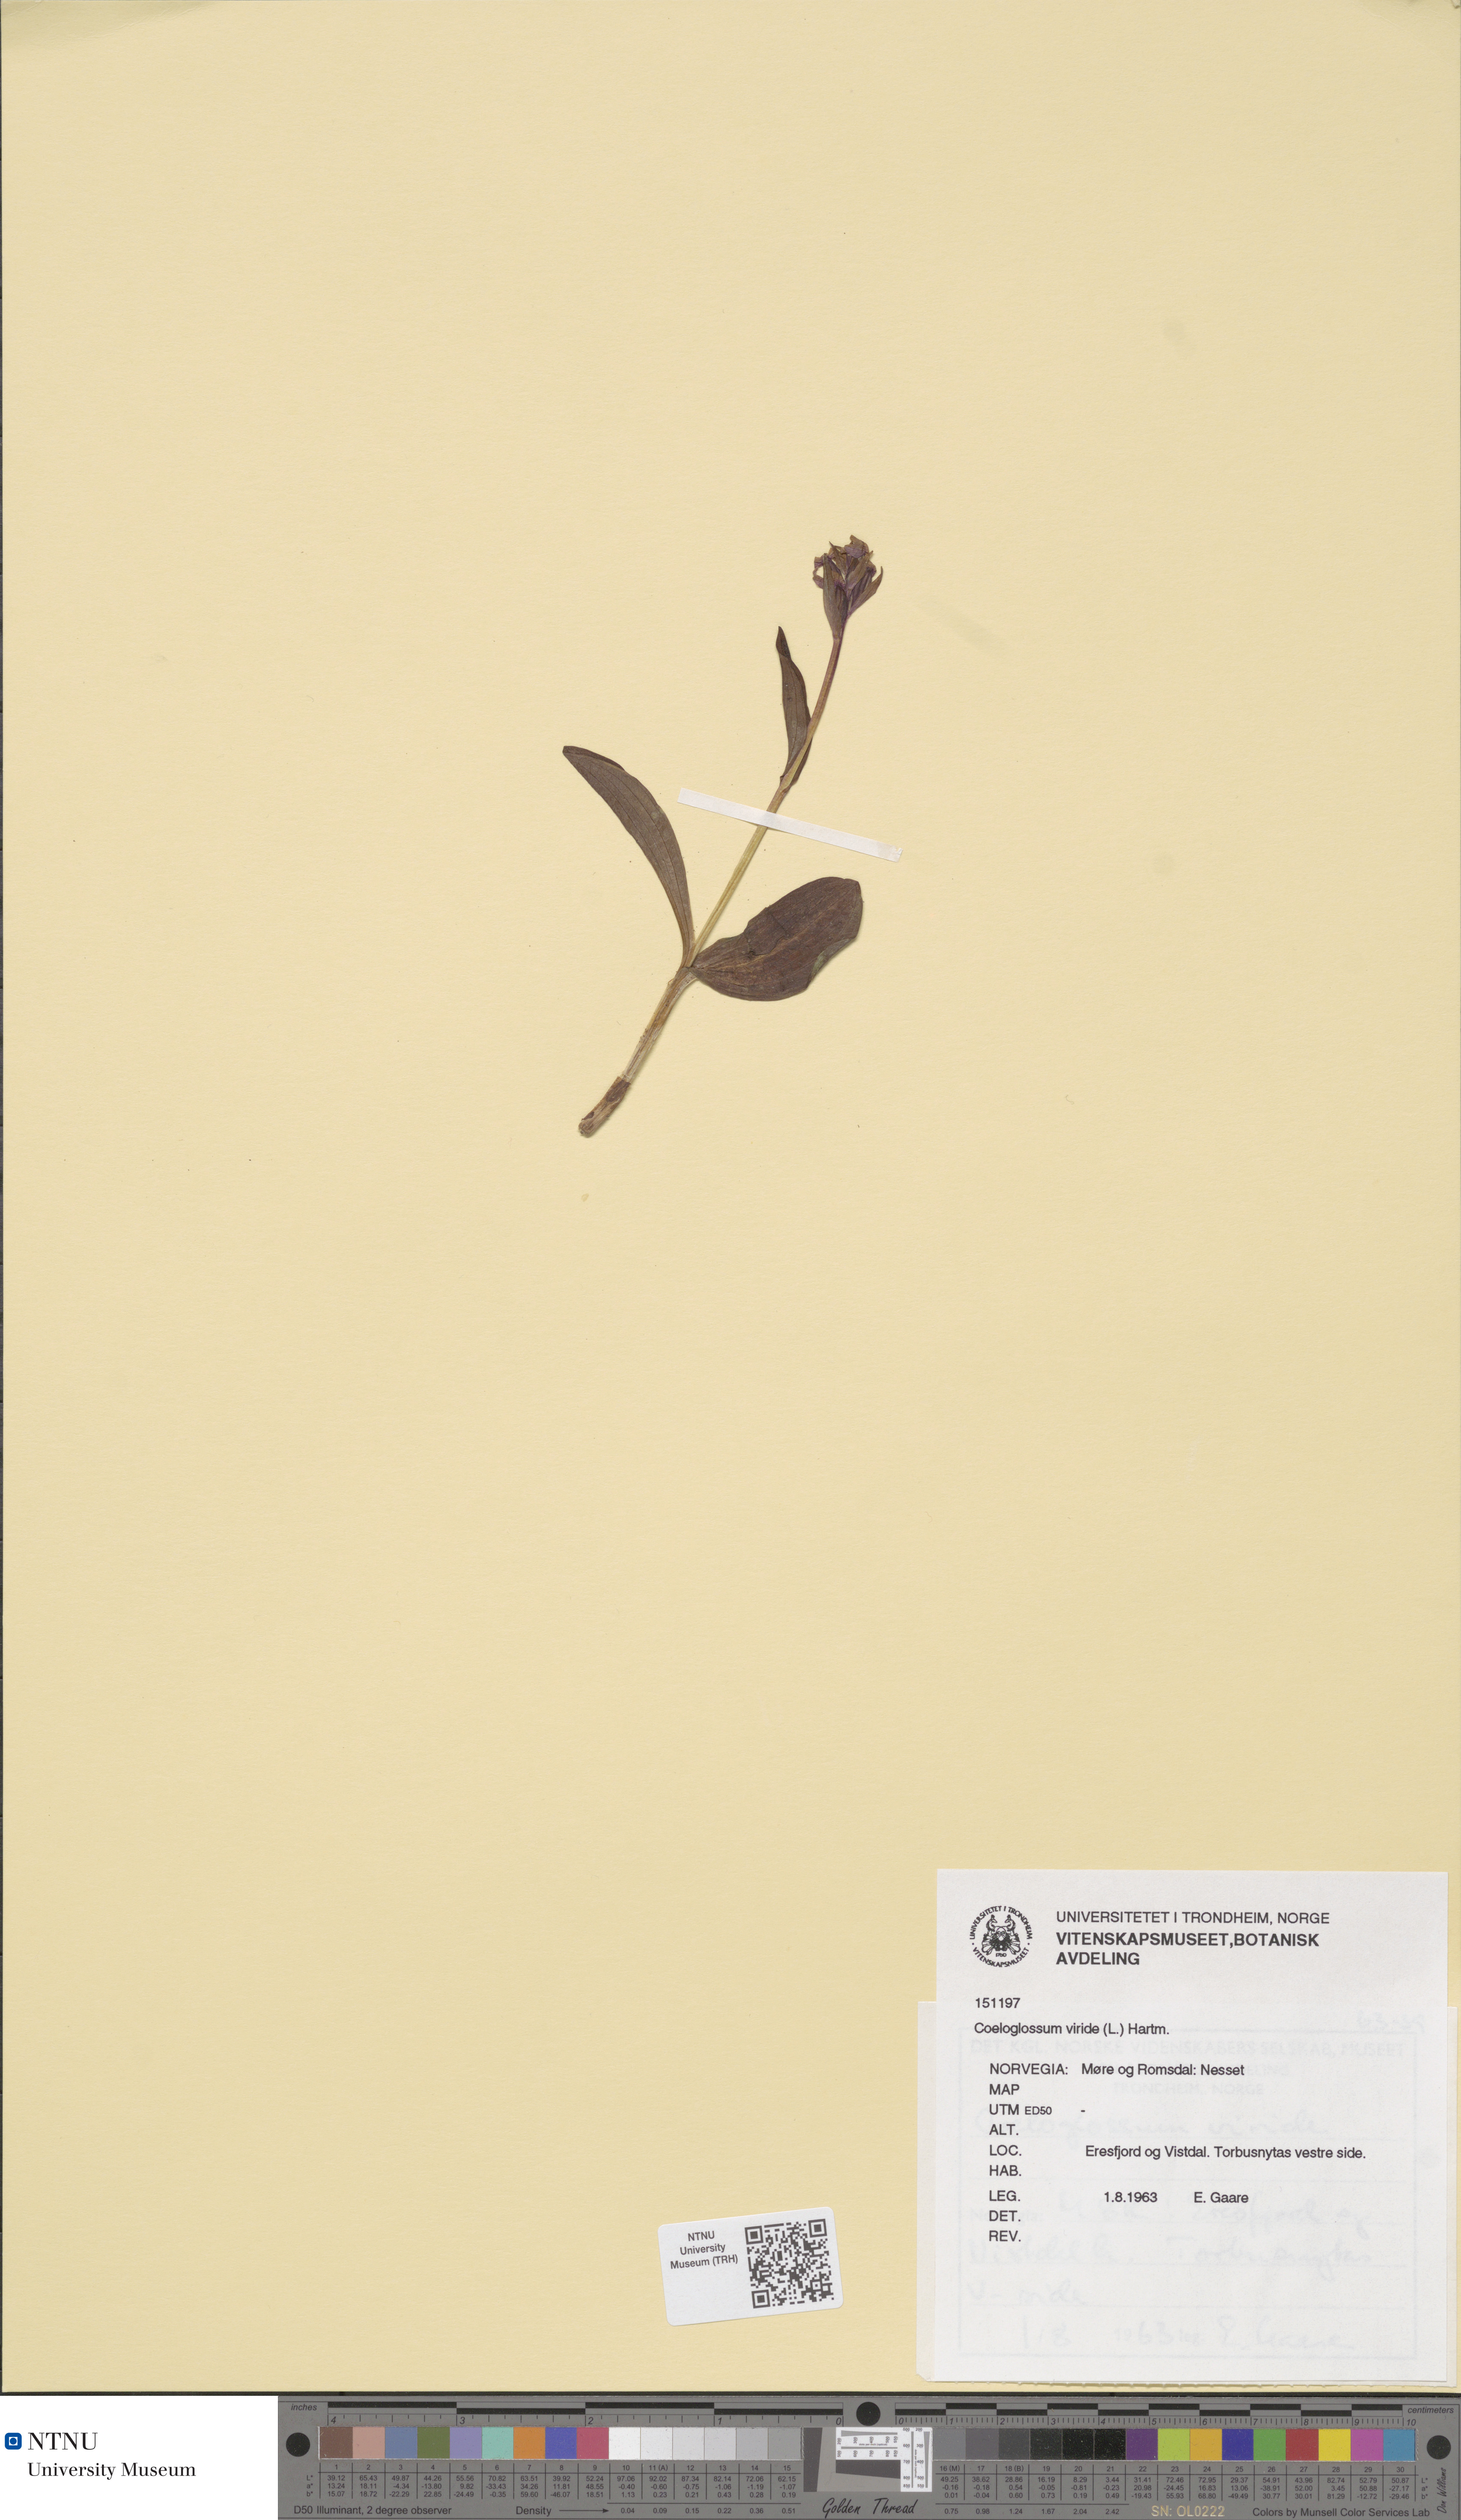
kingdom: Plantae
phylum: Tracheophyta
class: Liliopsida
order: Asparagales
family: Orchidaceae
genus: Dactylorhiza
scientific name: Dactylorhiza viridis
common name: Longbract frog orchid
